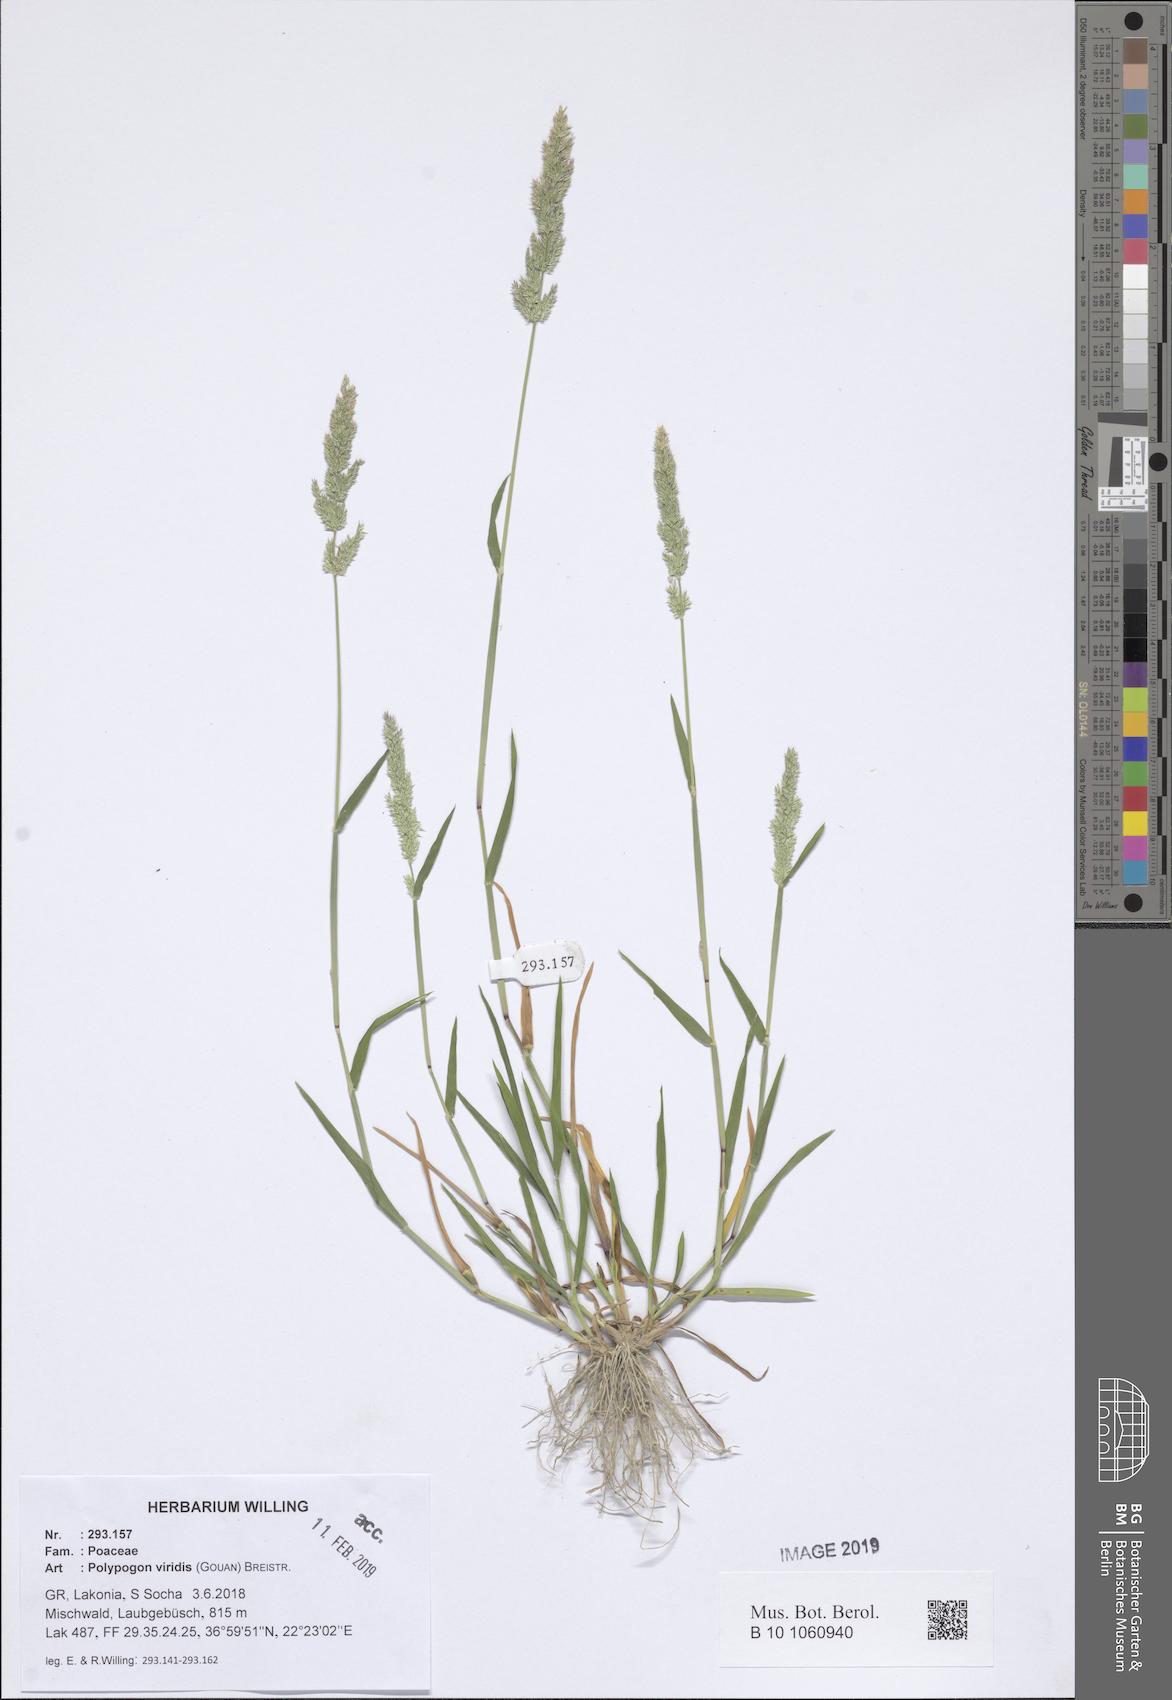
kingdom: Plantae
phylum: Tracheophyta
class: Liliopsida
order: Poales
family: Poaceae
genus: Polypogon
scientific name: Polypogon viridis
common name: Water bent
